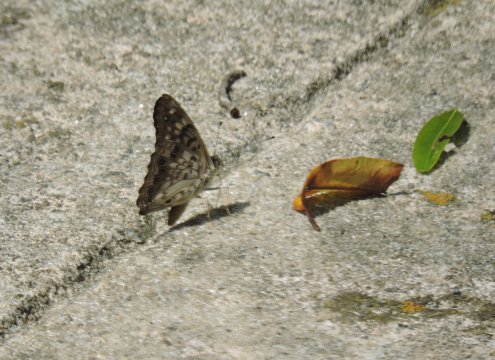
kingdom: Animalia
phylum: Arthropoda
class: Insecta
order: Lepidoptera
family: Nymphalidae
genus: Asterocampa
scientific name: Asterocampa celtis
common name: Hackberry Emperor
